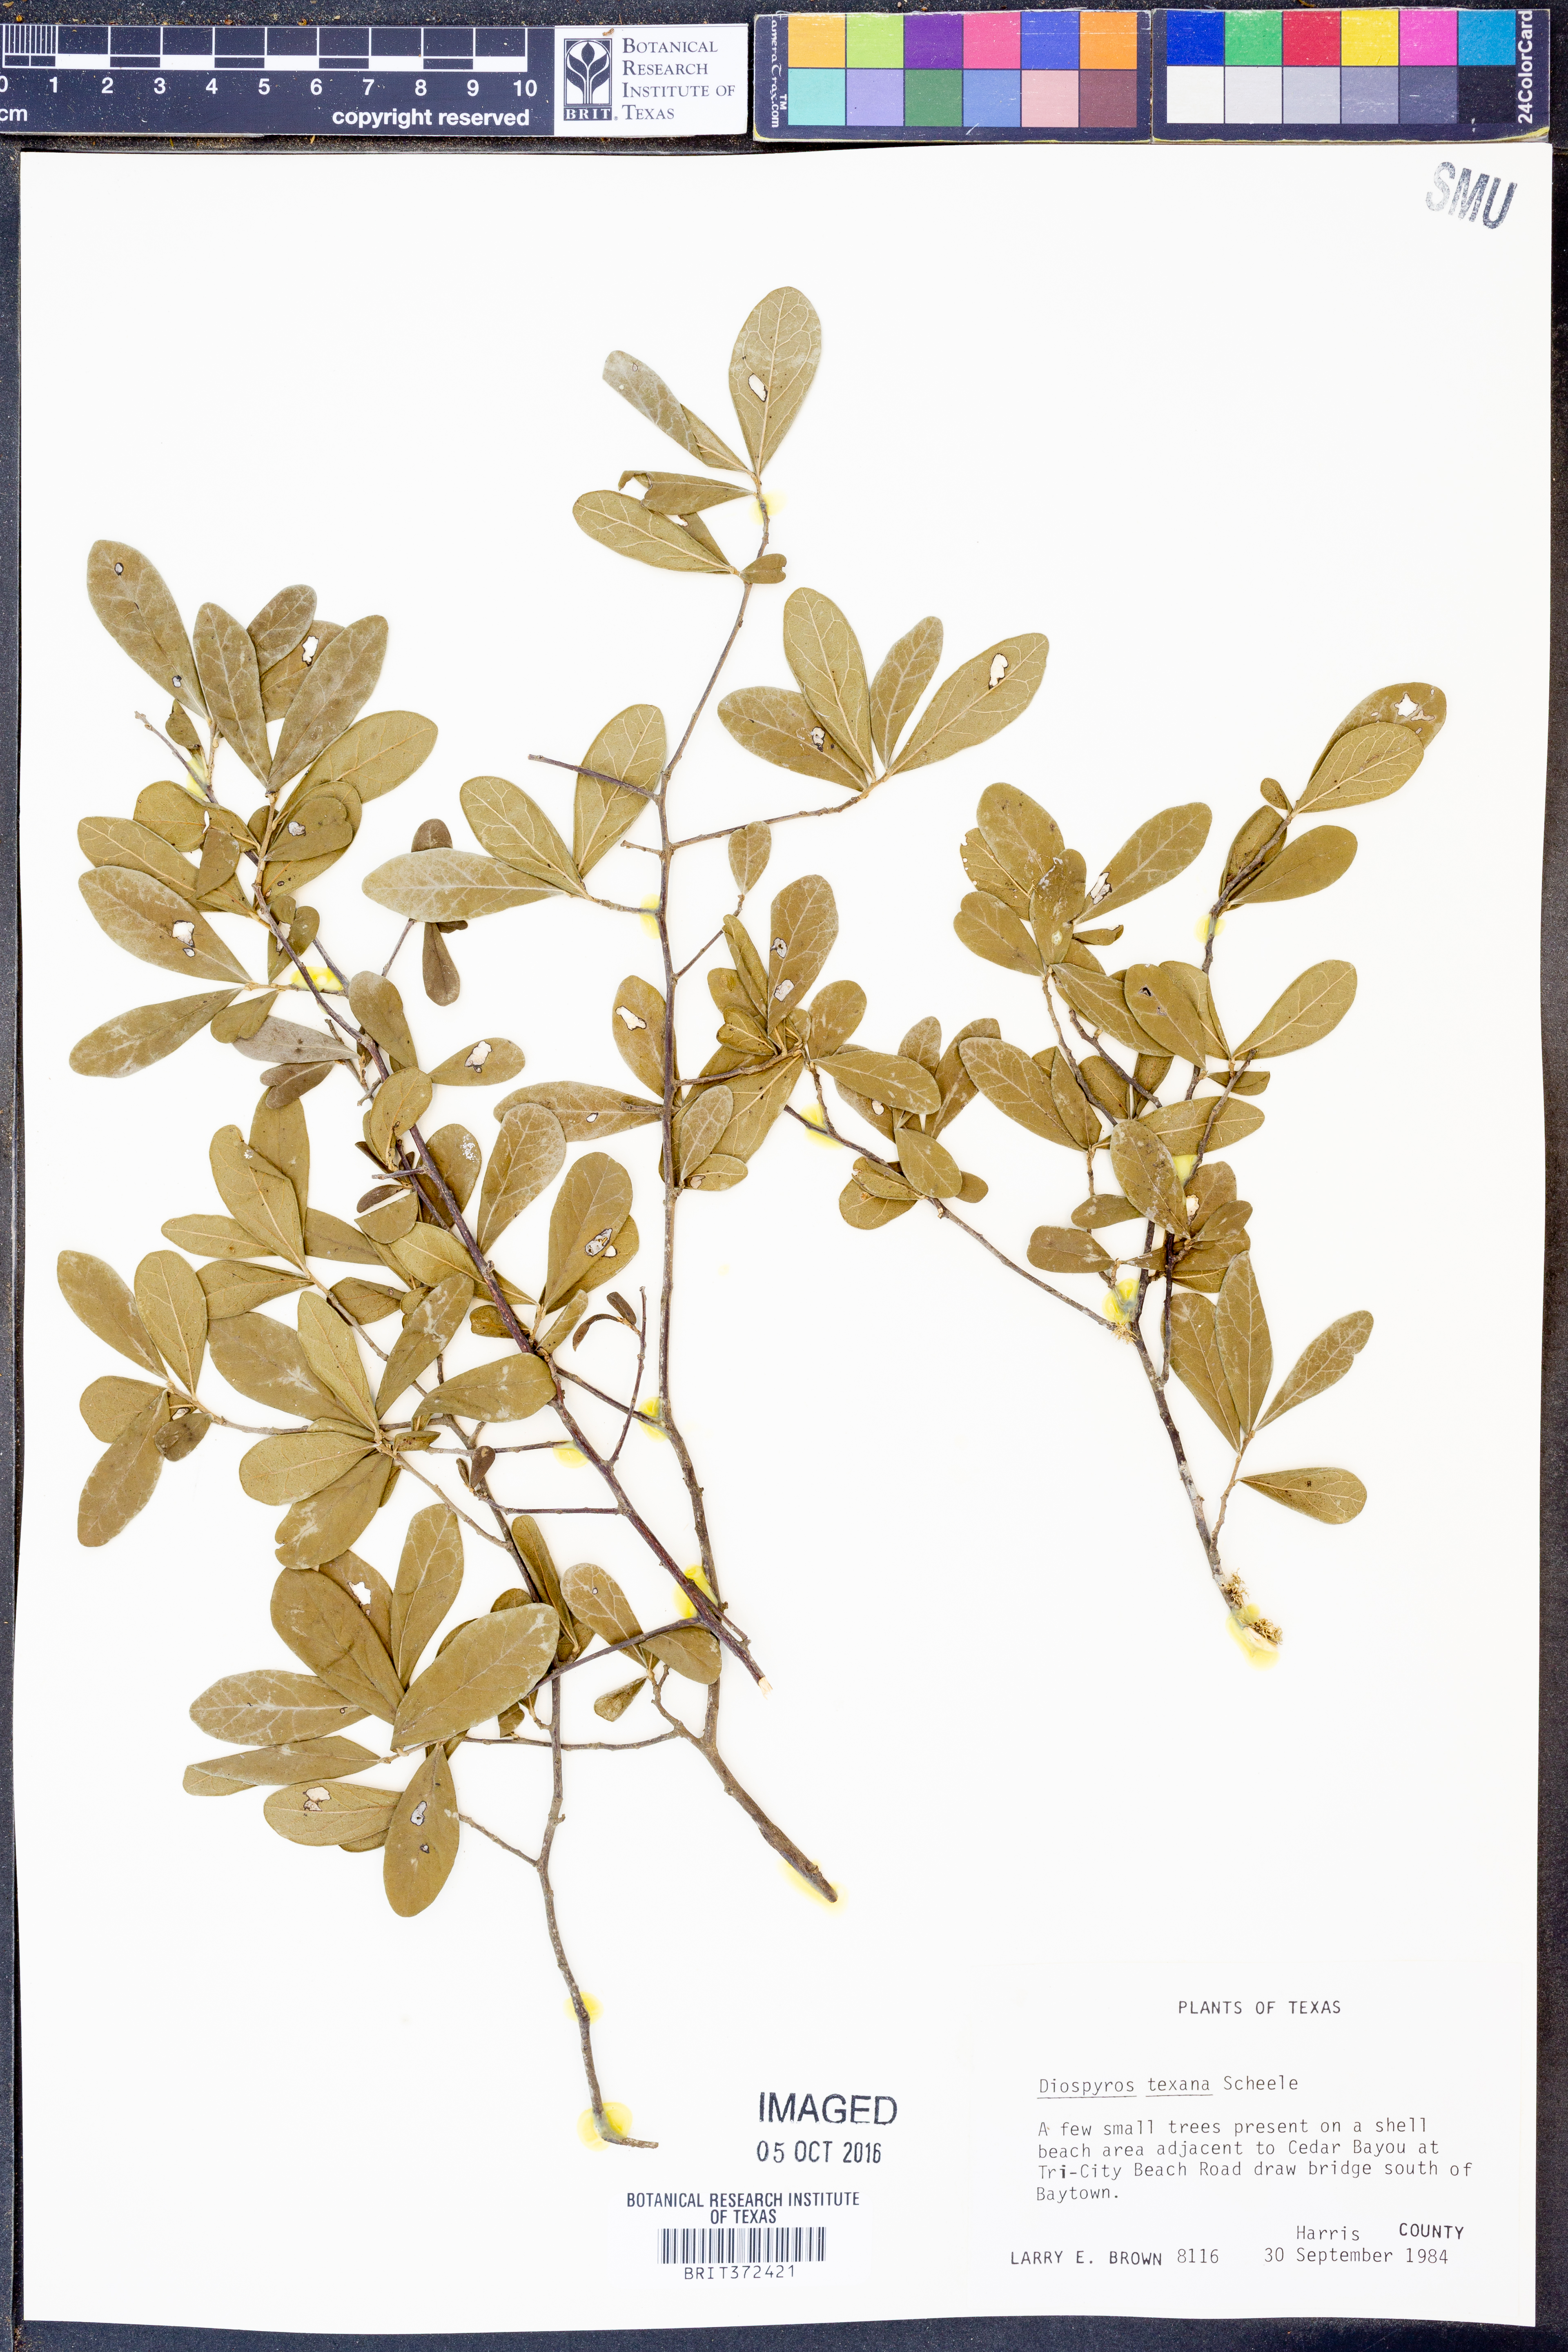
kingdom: Plantae
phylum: Tracheophyta
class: Magnoliopsida
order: Ericales
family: Ebenaceae
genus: Diospyros
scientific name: Diospyros texana
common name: Texas persimmon
